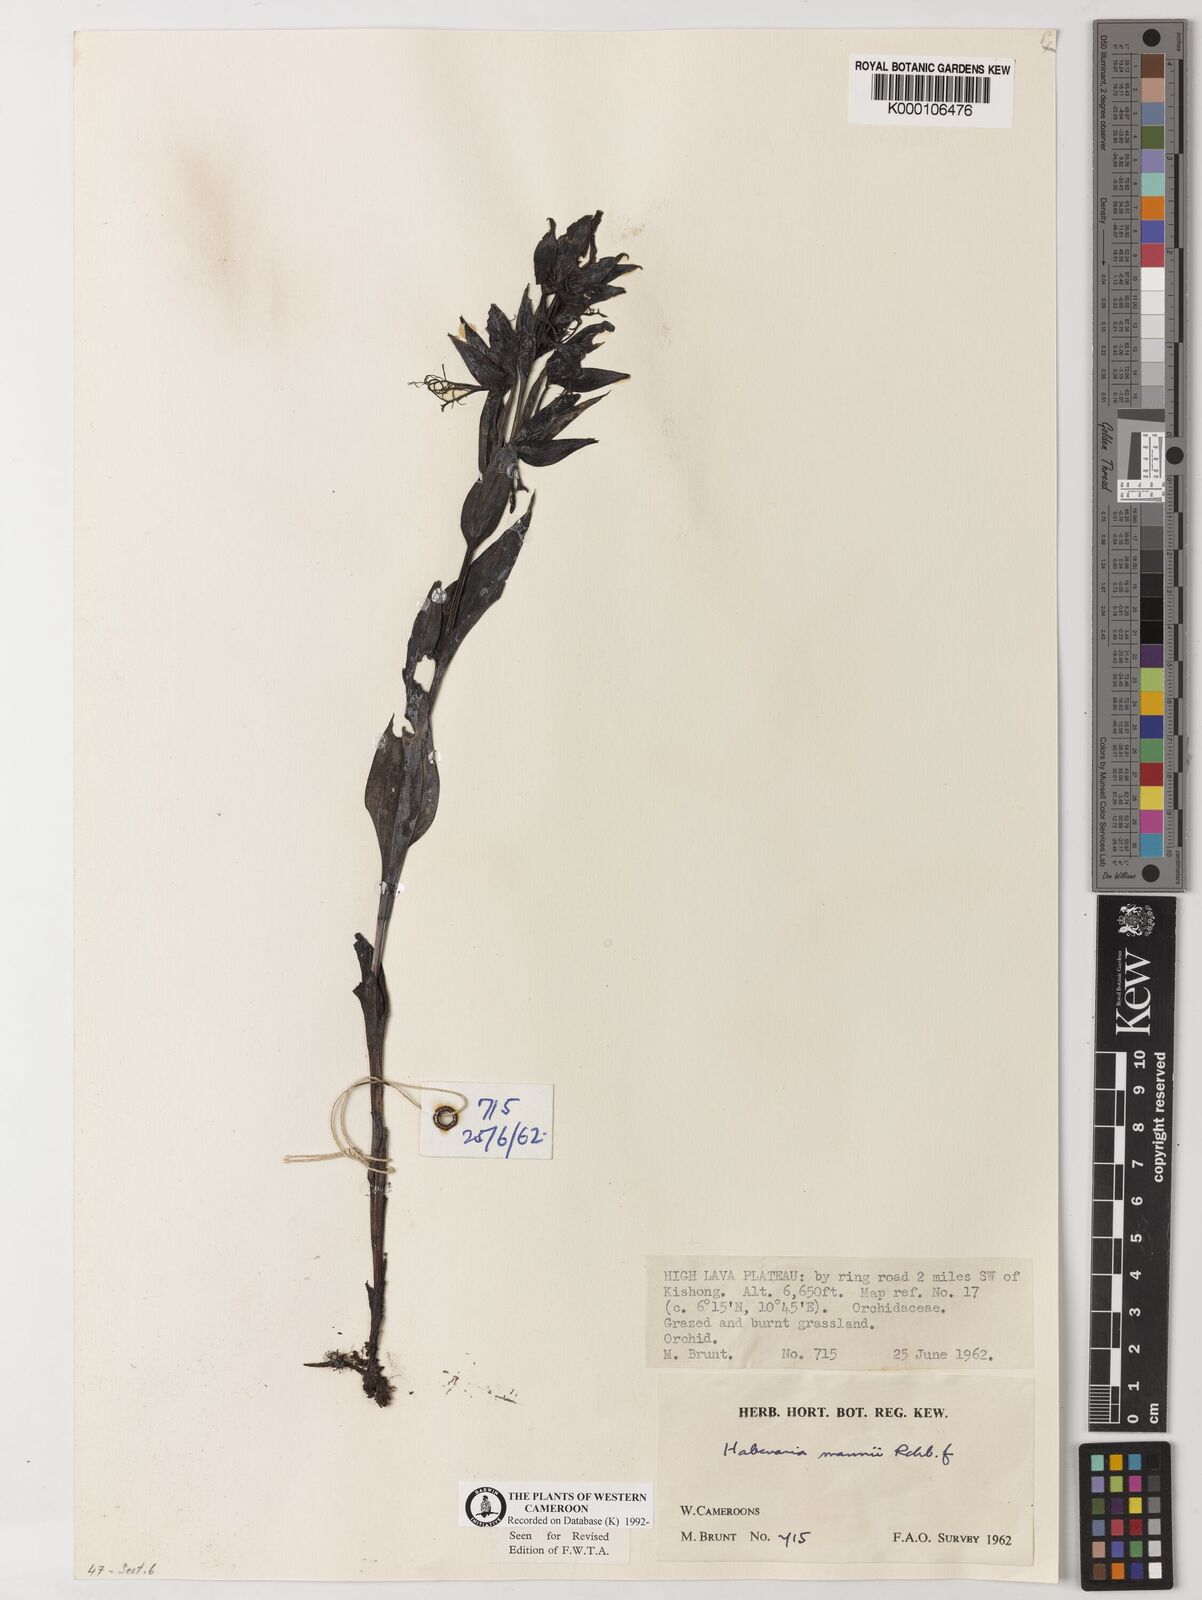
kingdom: Plantae
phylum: Tracheophyta
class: Liliopsida
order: Asparagales
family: Orchidaceae
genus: Habenaria
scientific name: Habenaria mannii
